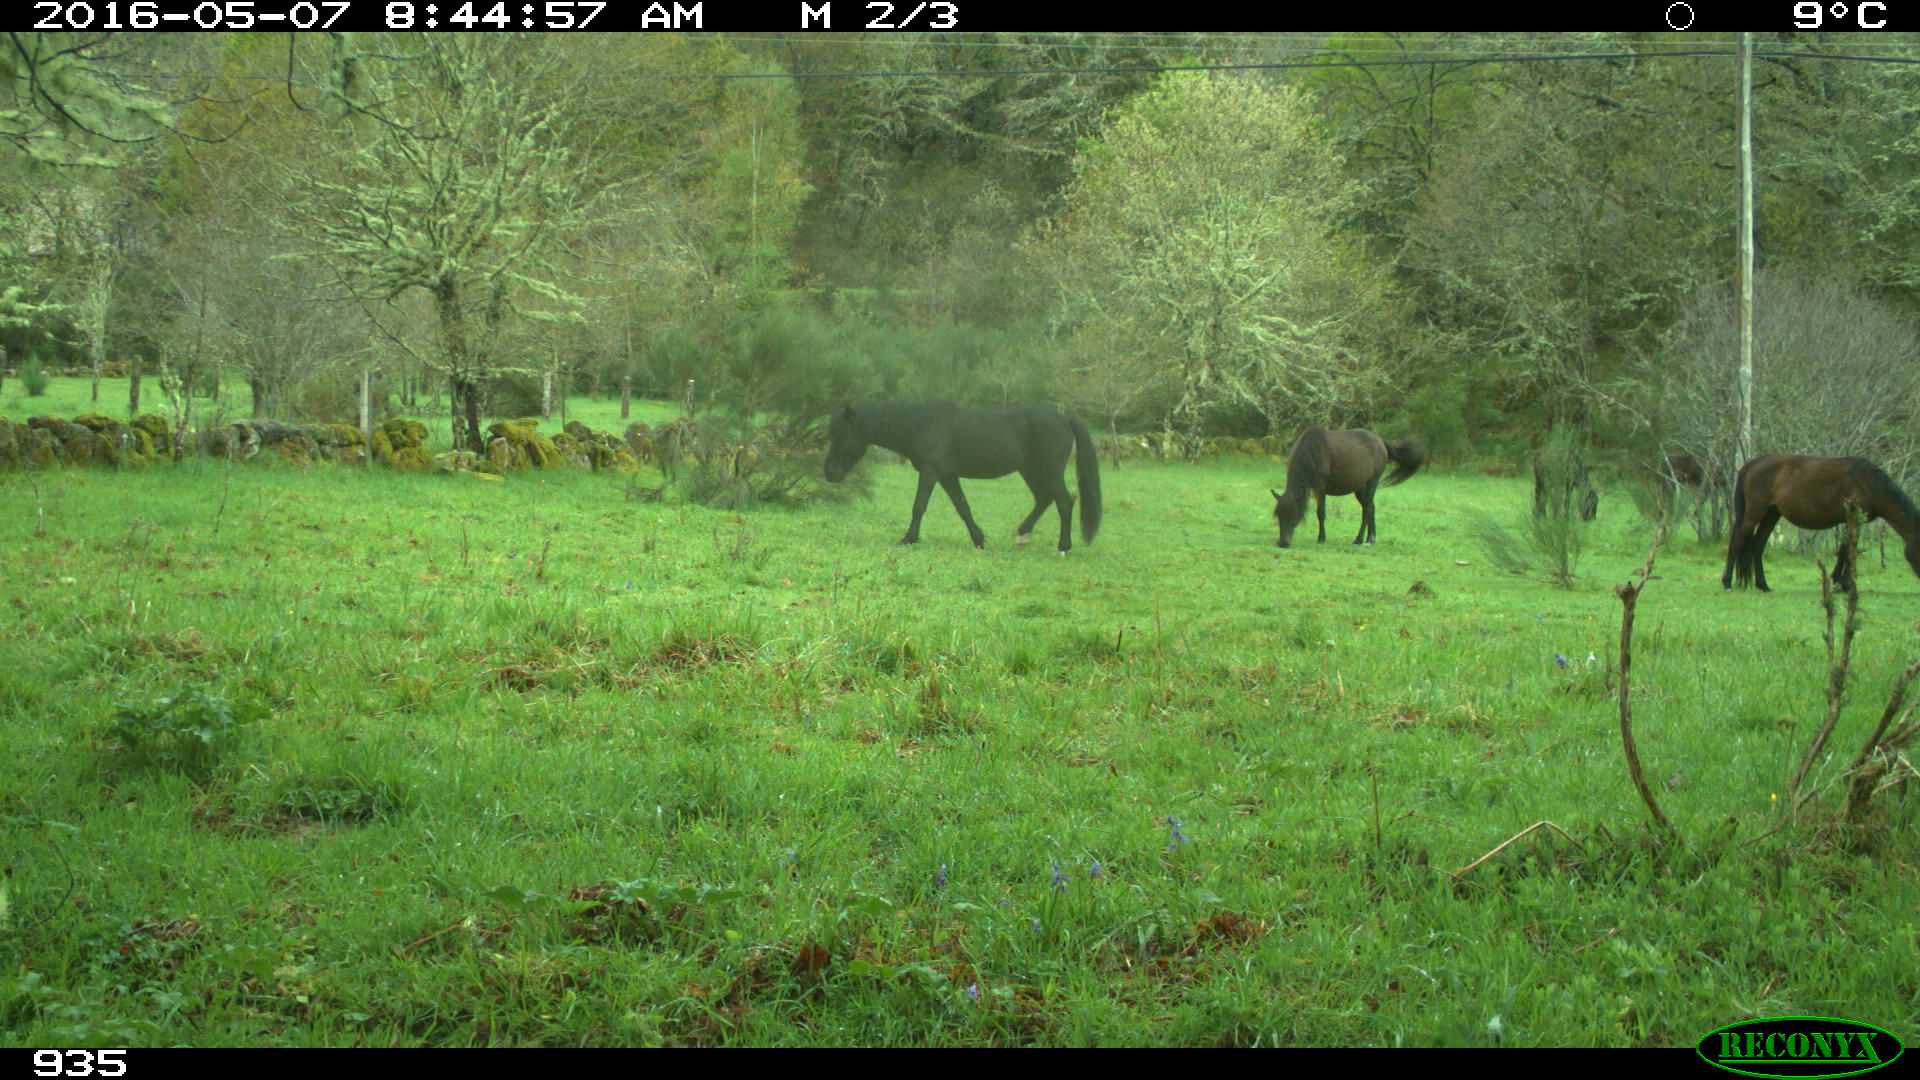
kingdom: Animalia
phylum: Chordata
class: Mammalia
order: Perissodactyla
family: Equidae
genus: Equus
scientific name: Equus caballus
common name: Horse
